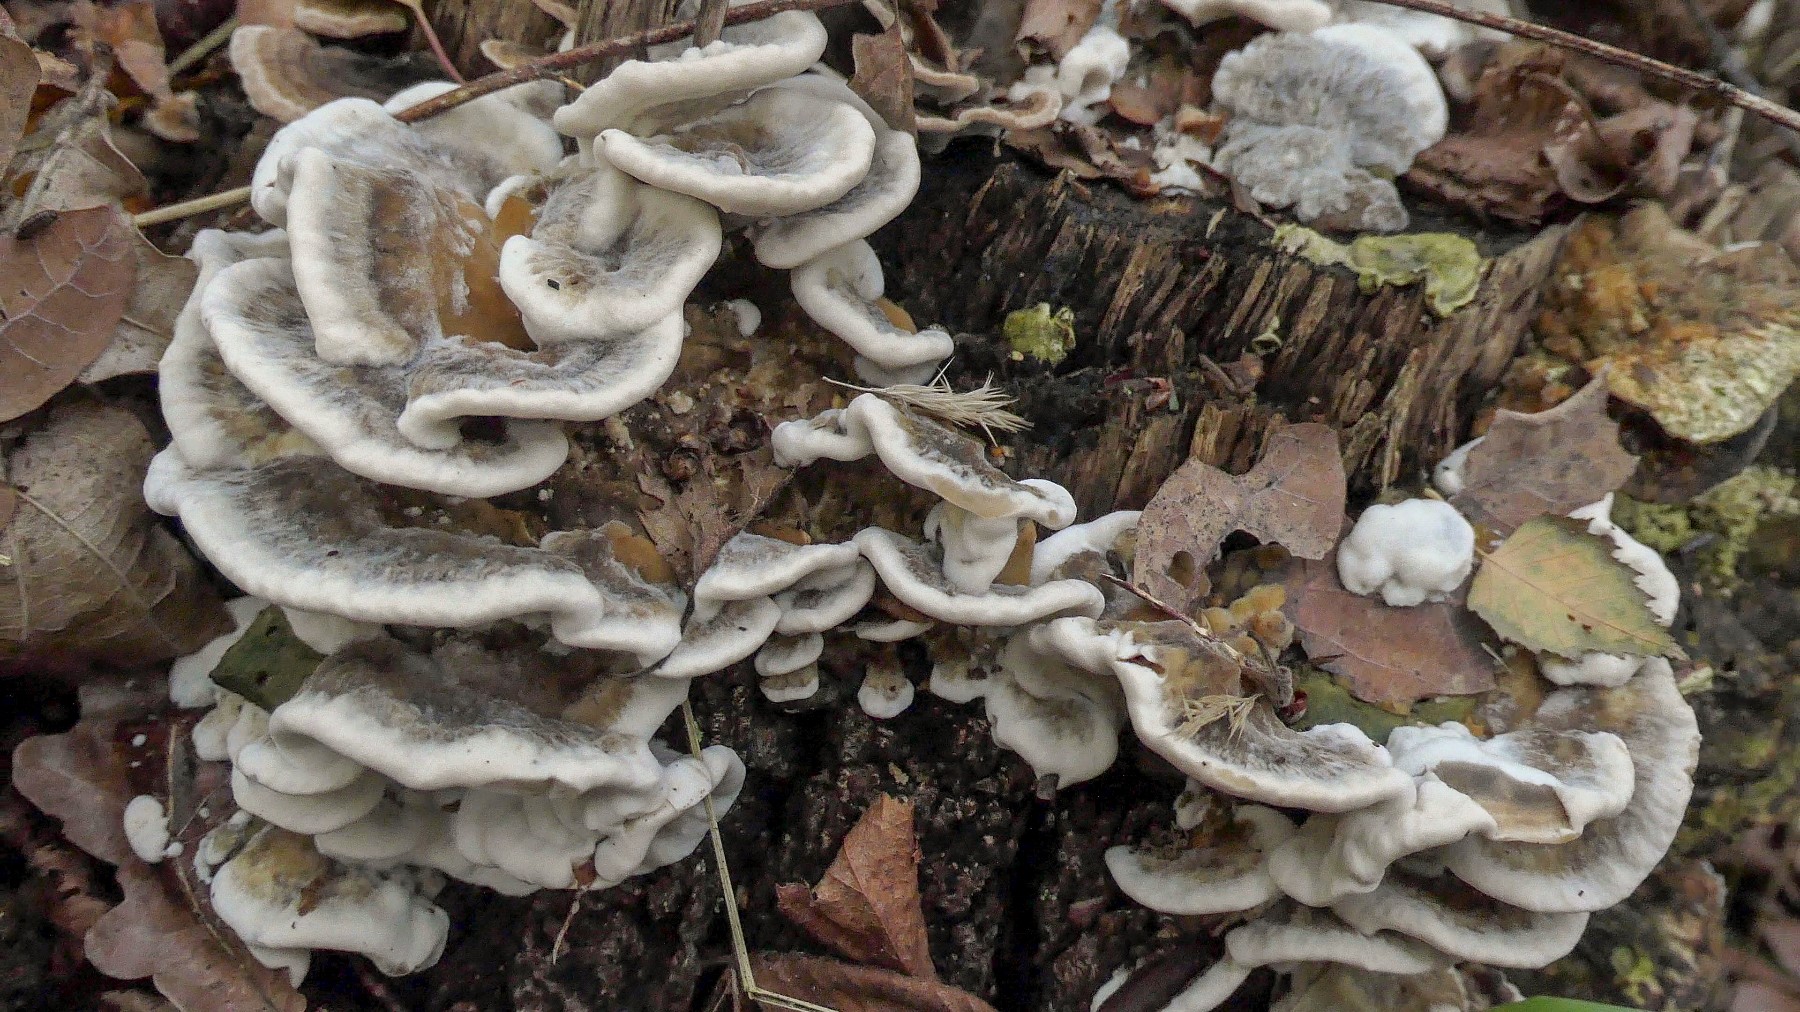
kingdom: Fungi
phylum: Basidiomycota
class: Agaricomycetes
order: Polyporales
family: Phanerochaetaceae
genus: Bjerkandera
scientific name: Bjerkandera fumosa
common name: grågul sodporesvamp
